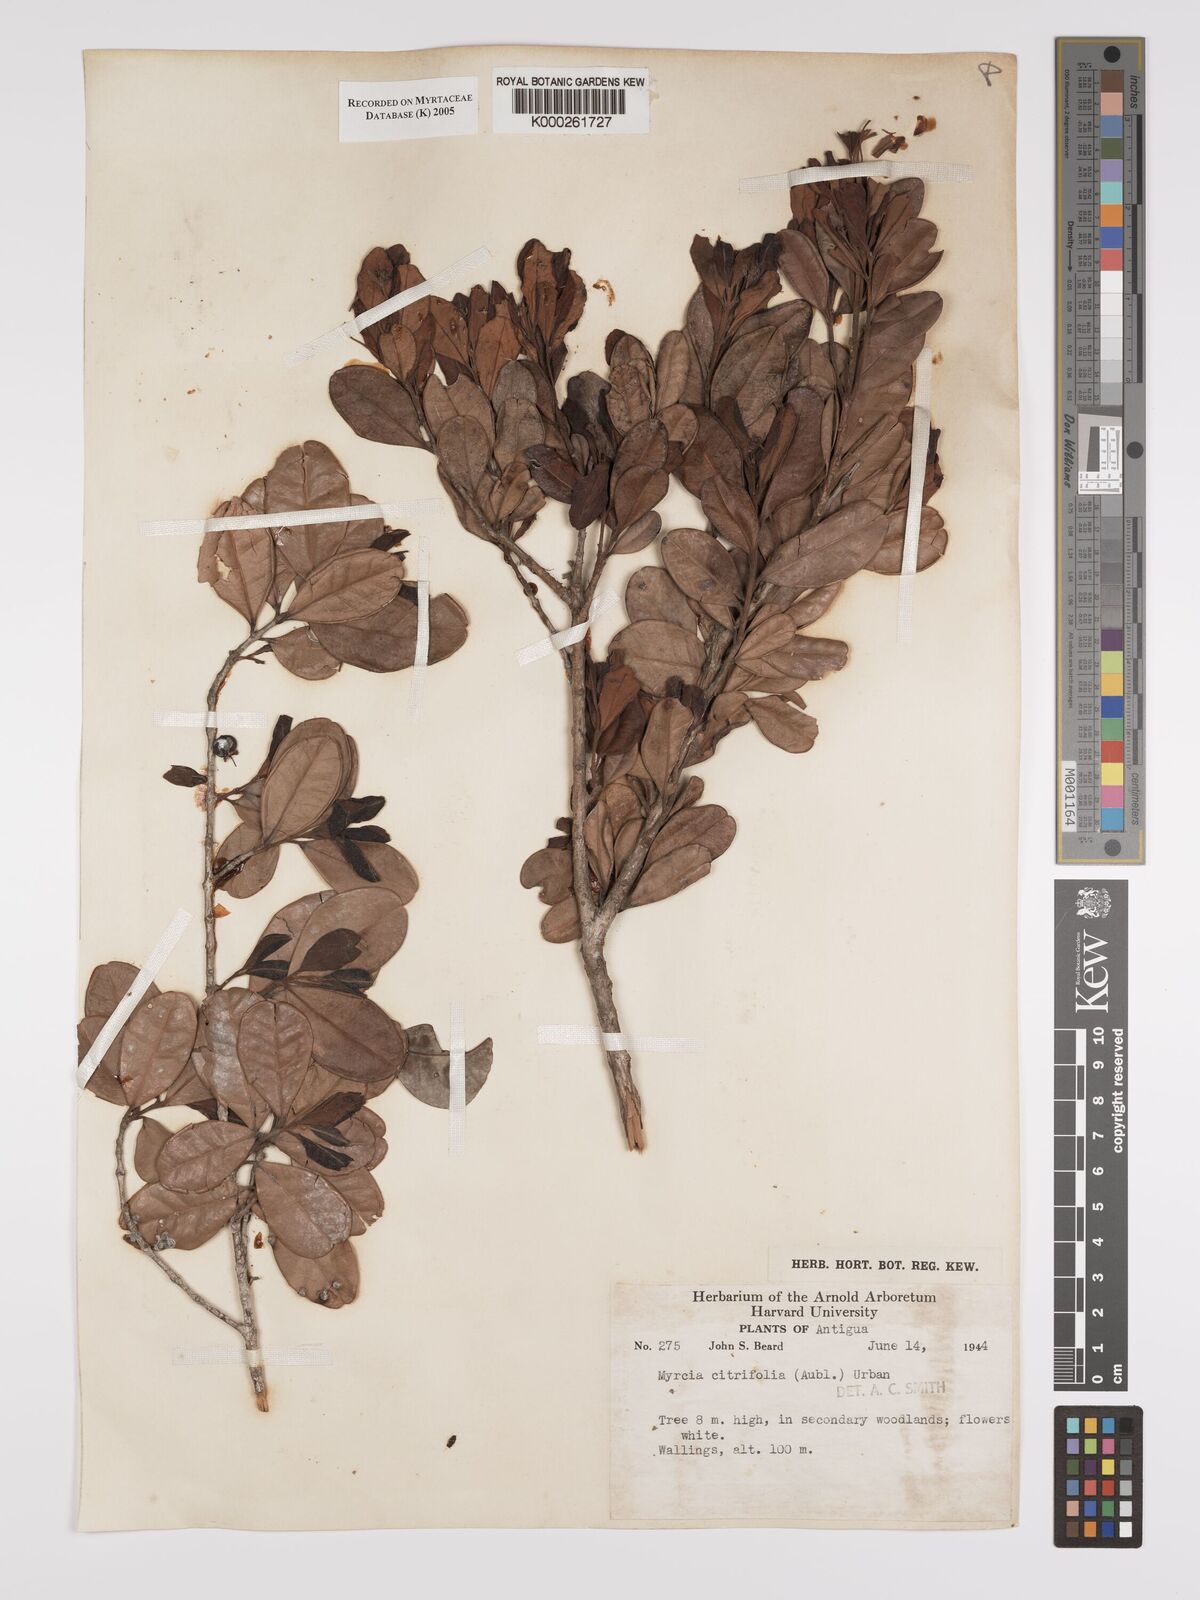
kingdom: Plantae
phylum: Tracheophyta
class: Magnoliopsida
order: Myrtales
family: Myrtaceae
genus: Myrcia
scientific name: Myrcia guianensis
